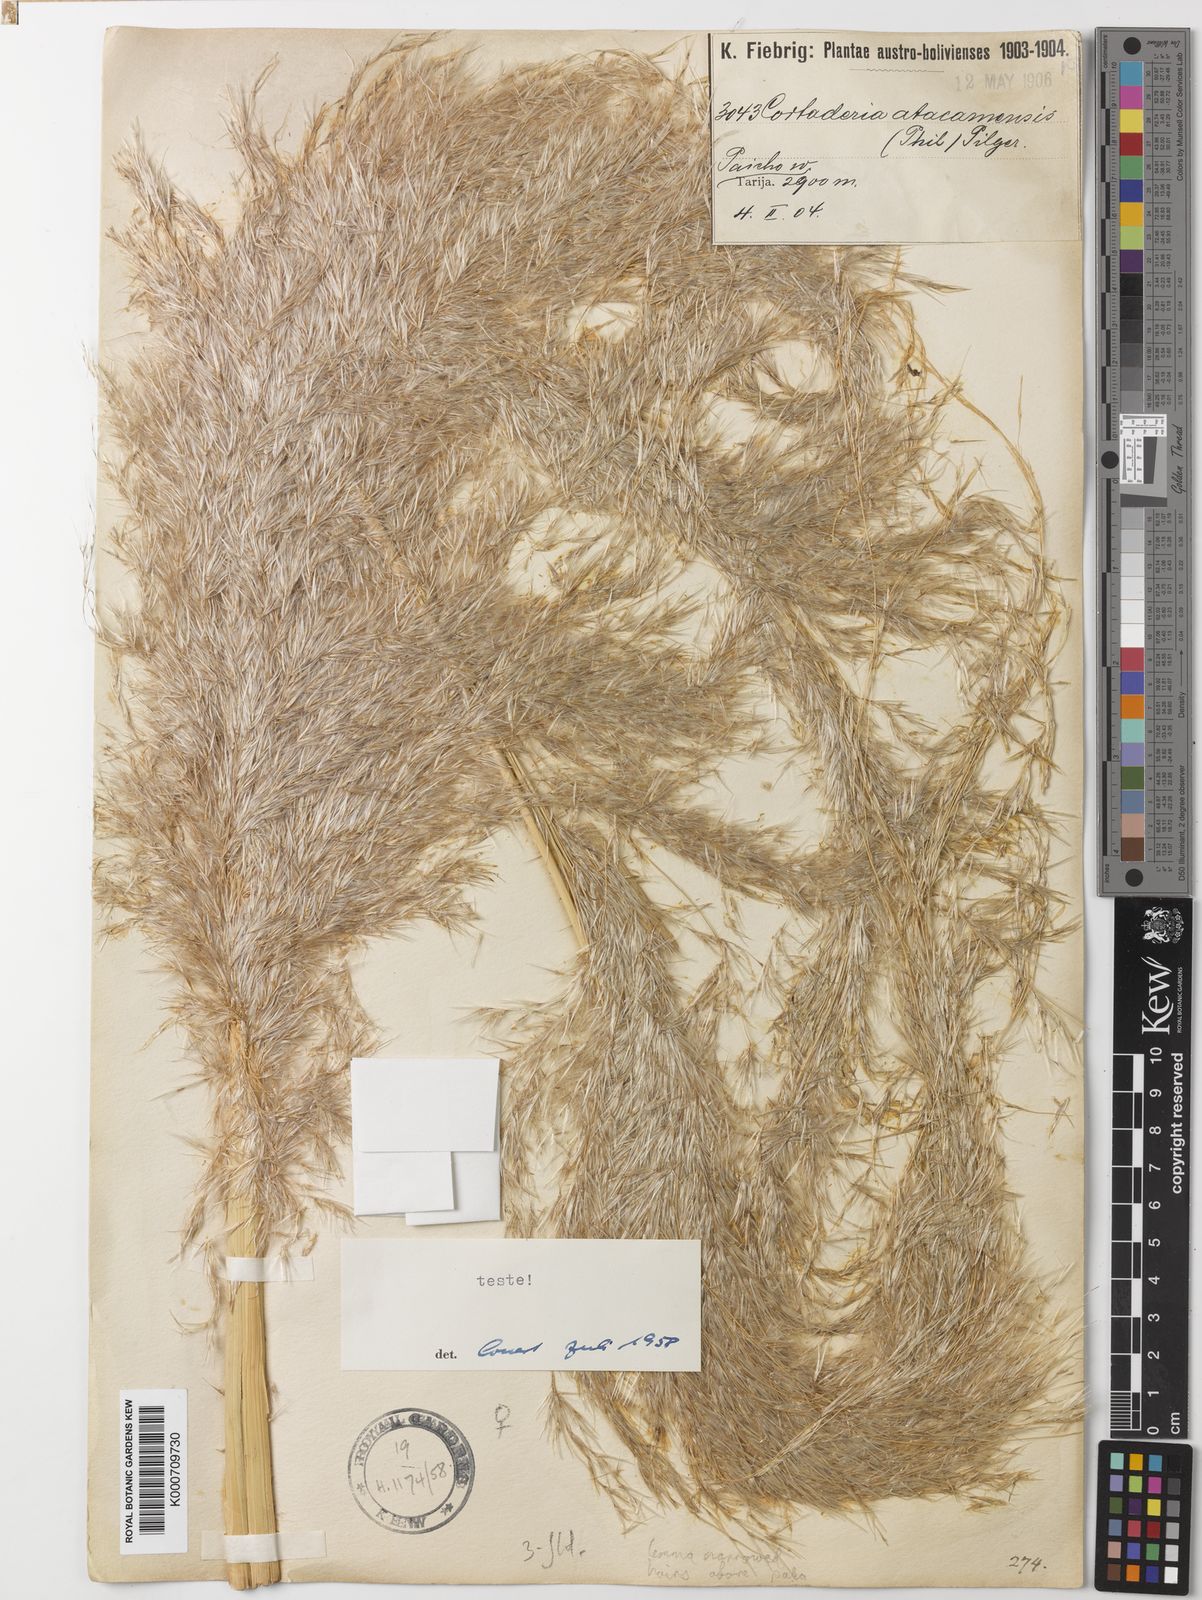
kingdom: Plantae
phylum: Tracheophyta
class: Liliopsida
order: Poales
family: Poaceae
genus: Cortaderia
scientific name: Cortaderia jubata
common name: Purple pampas grass
